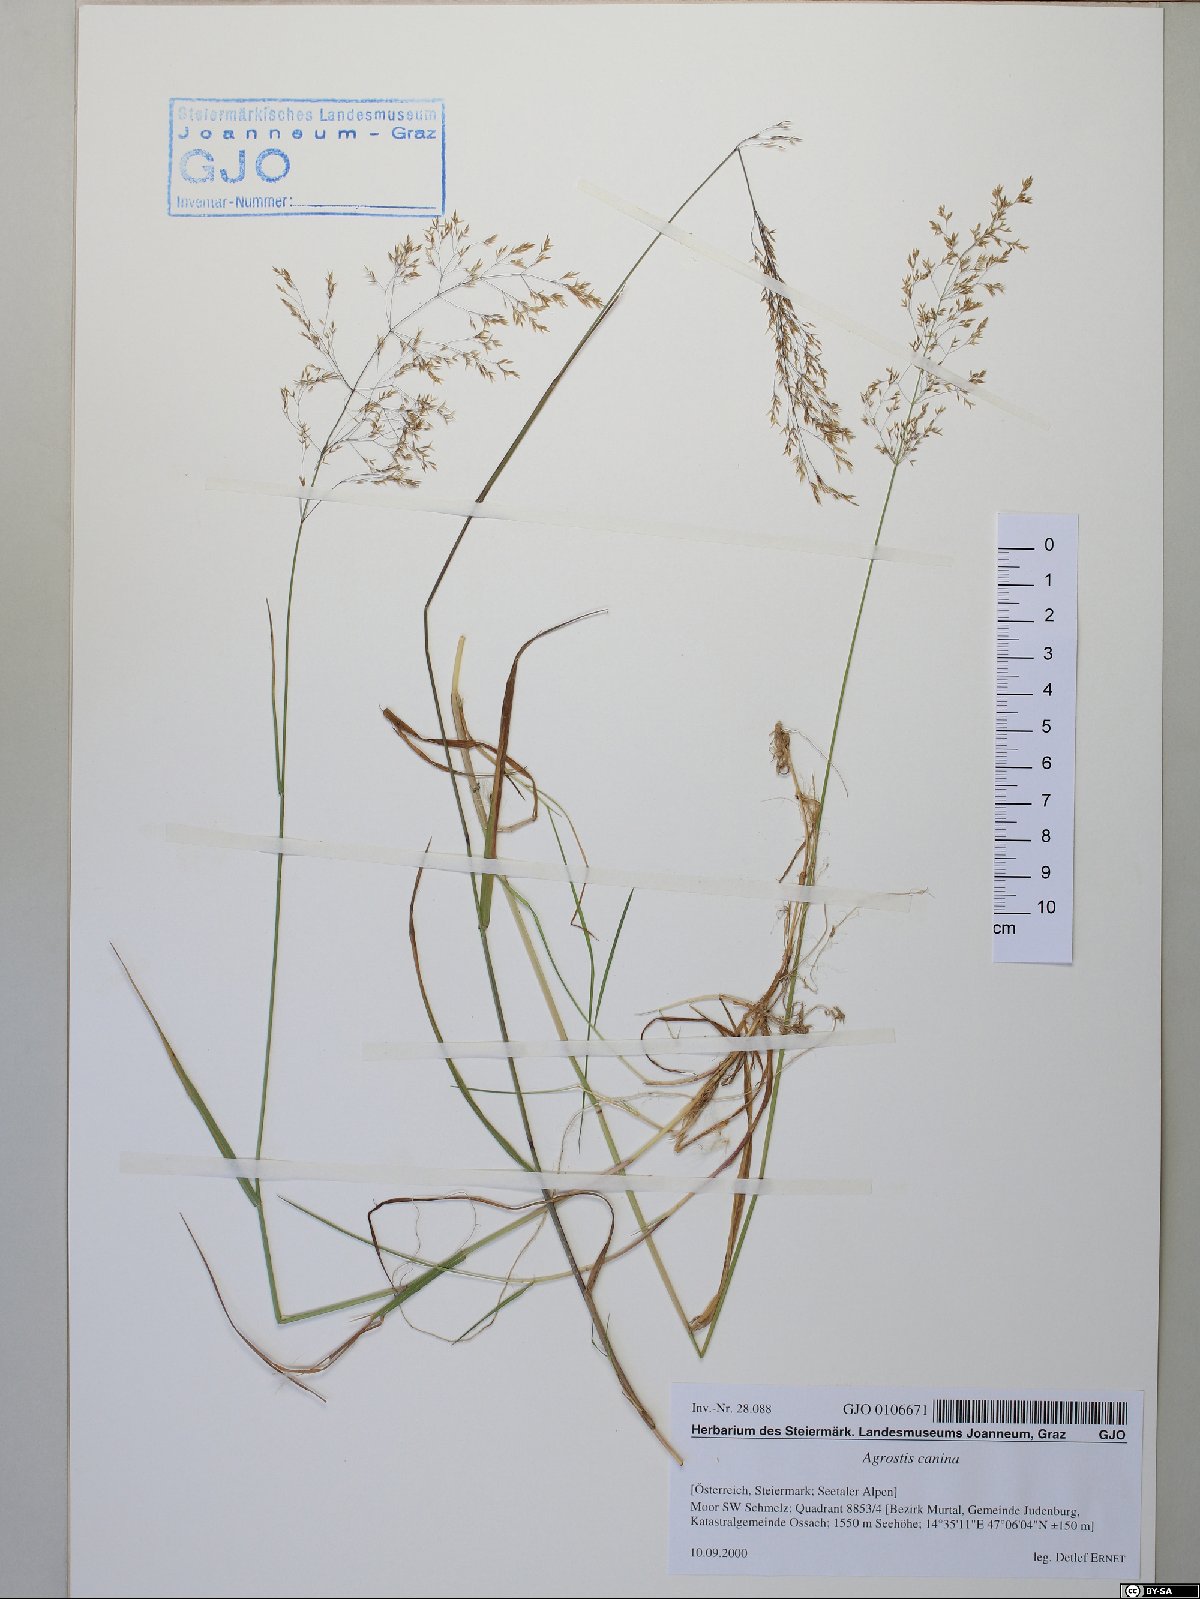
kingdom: Plantae
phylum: Tracheophyta
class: Liliopsida
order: Poales
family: Poaceae
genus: Agrostis
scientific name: Agrostis canina
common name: Velvet bent
